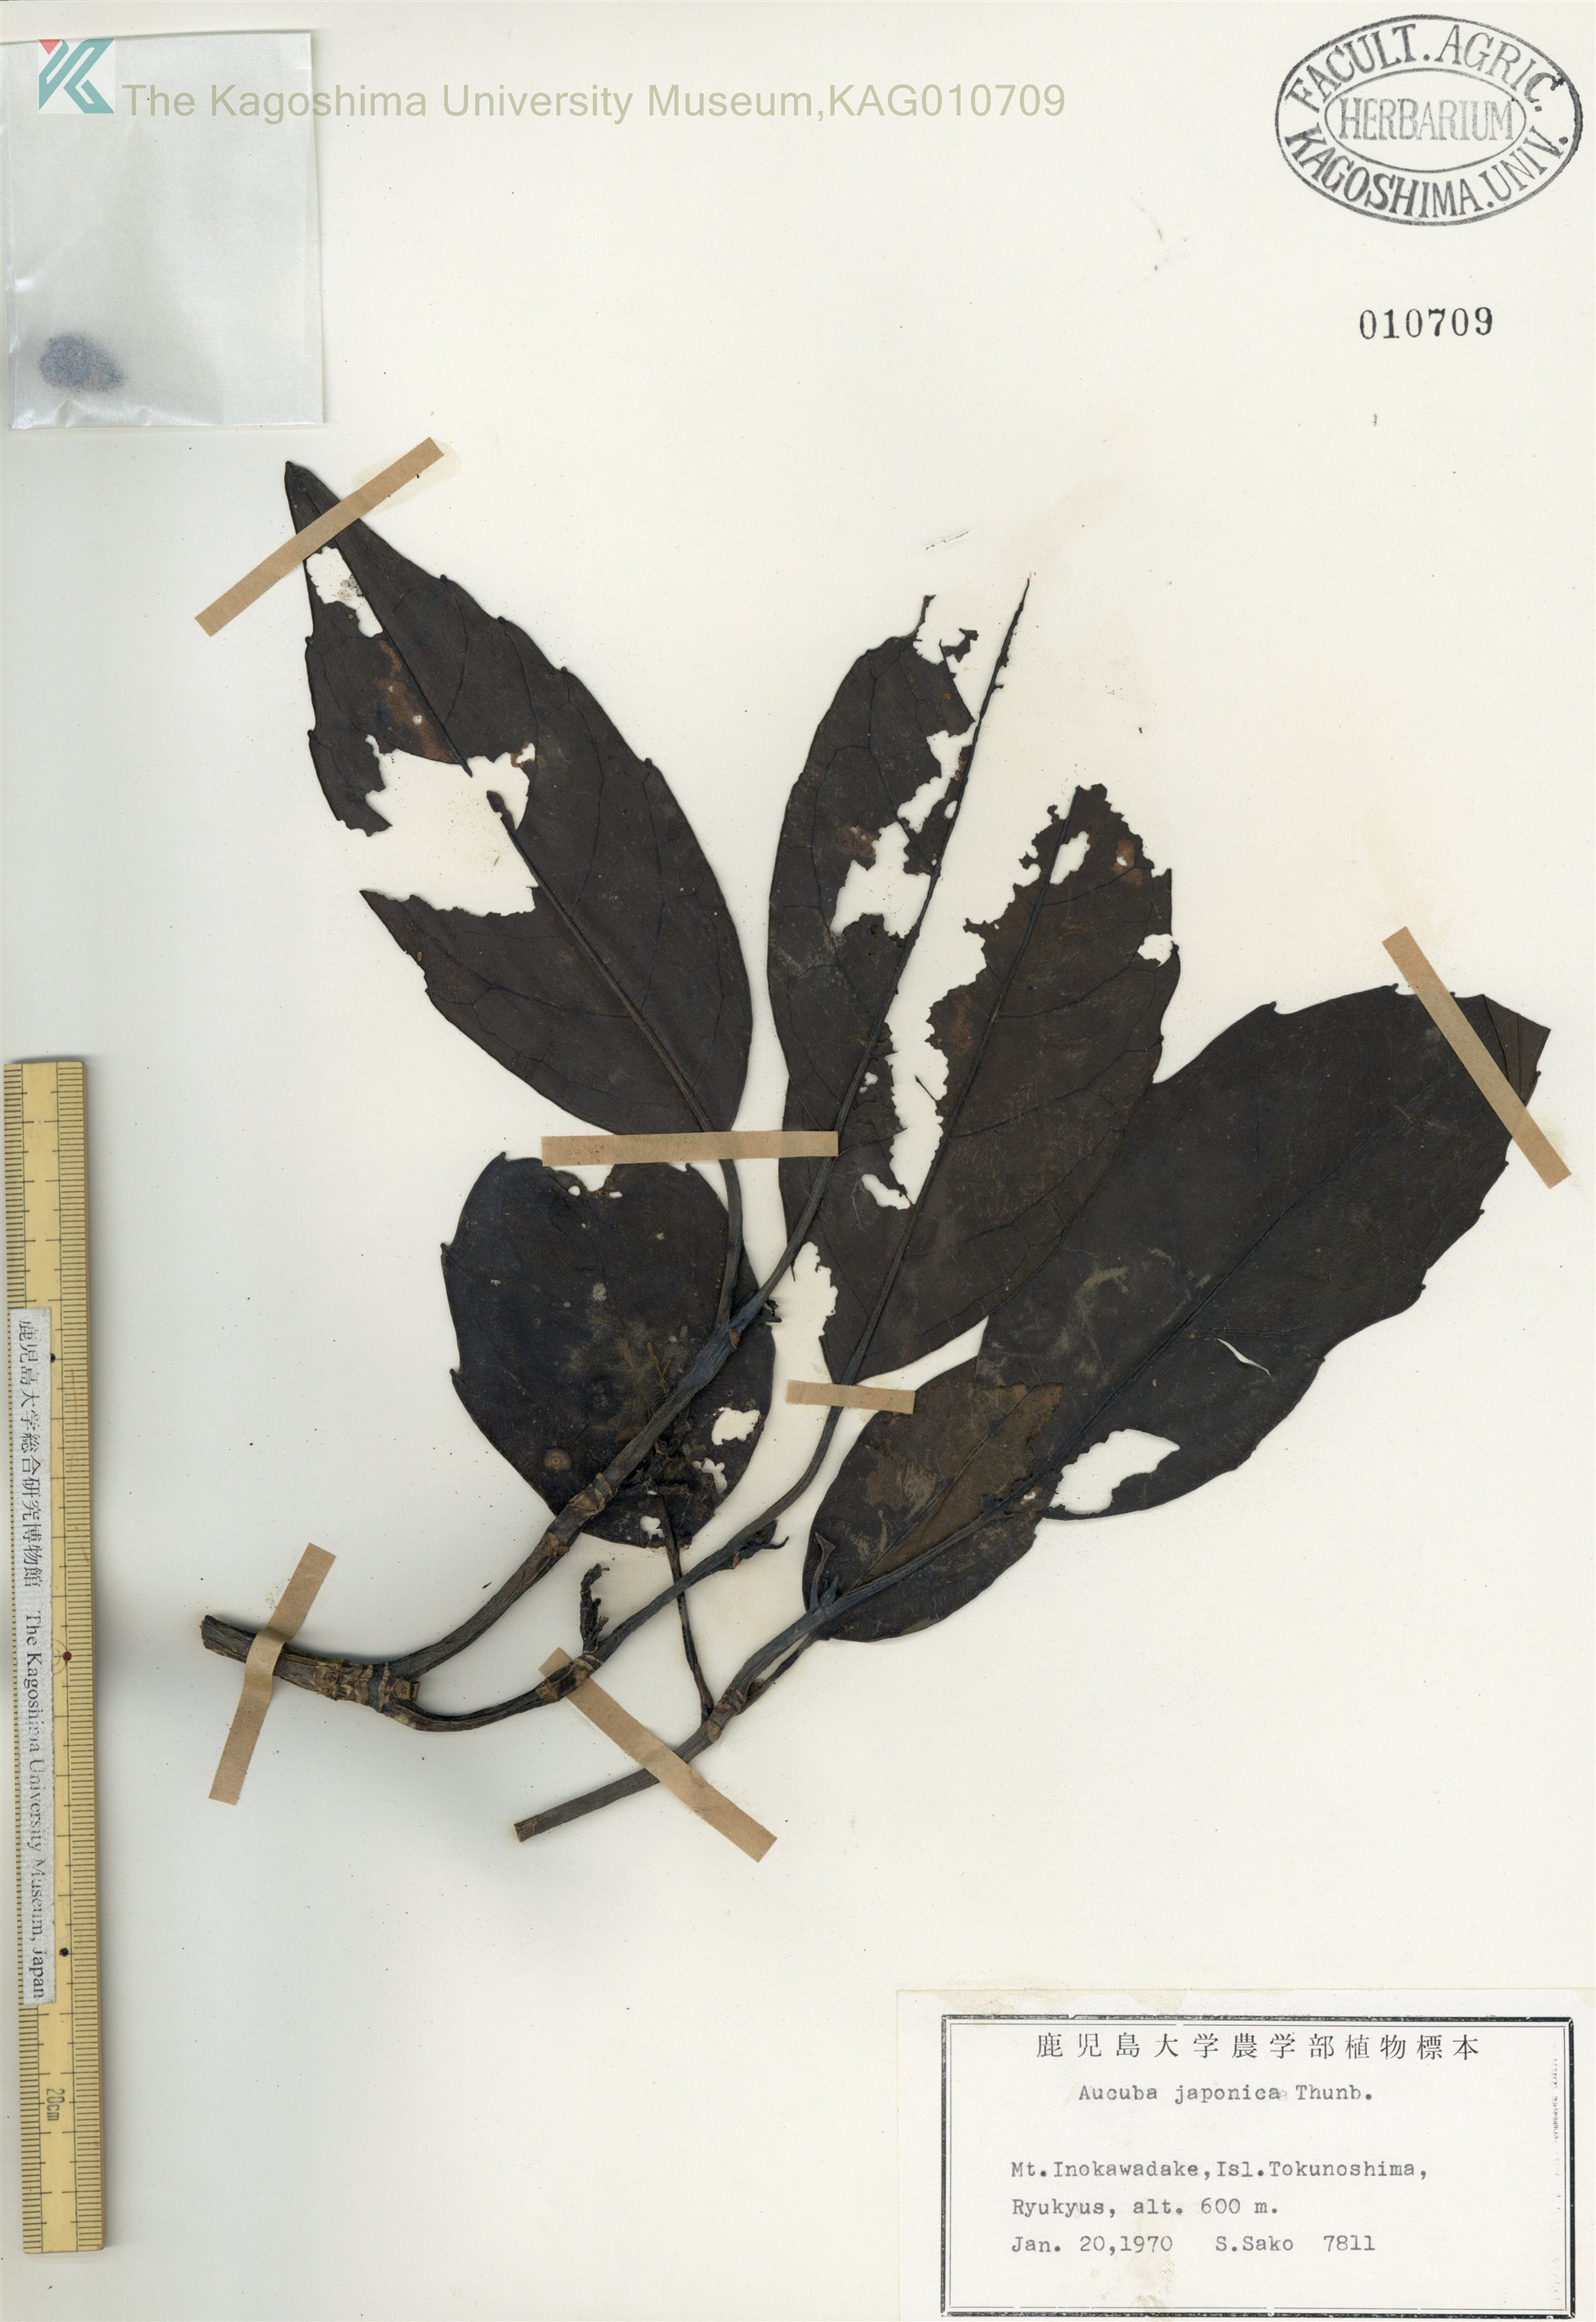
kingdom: Plantae
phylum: Tracheophyta
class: Magnoliopsida
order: Garryales
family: Garryaceae
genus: Aucuba
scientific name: Aucuba japonica
